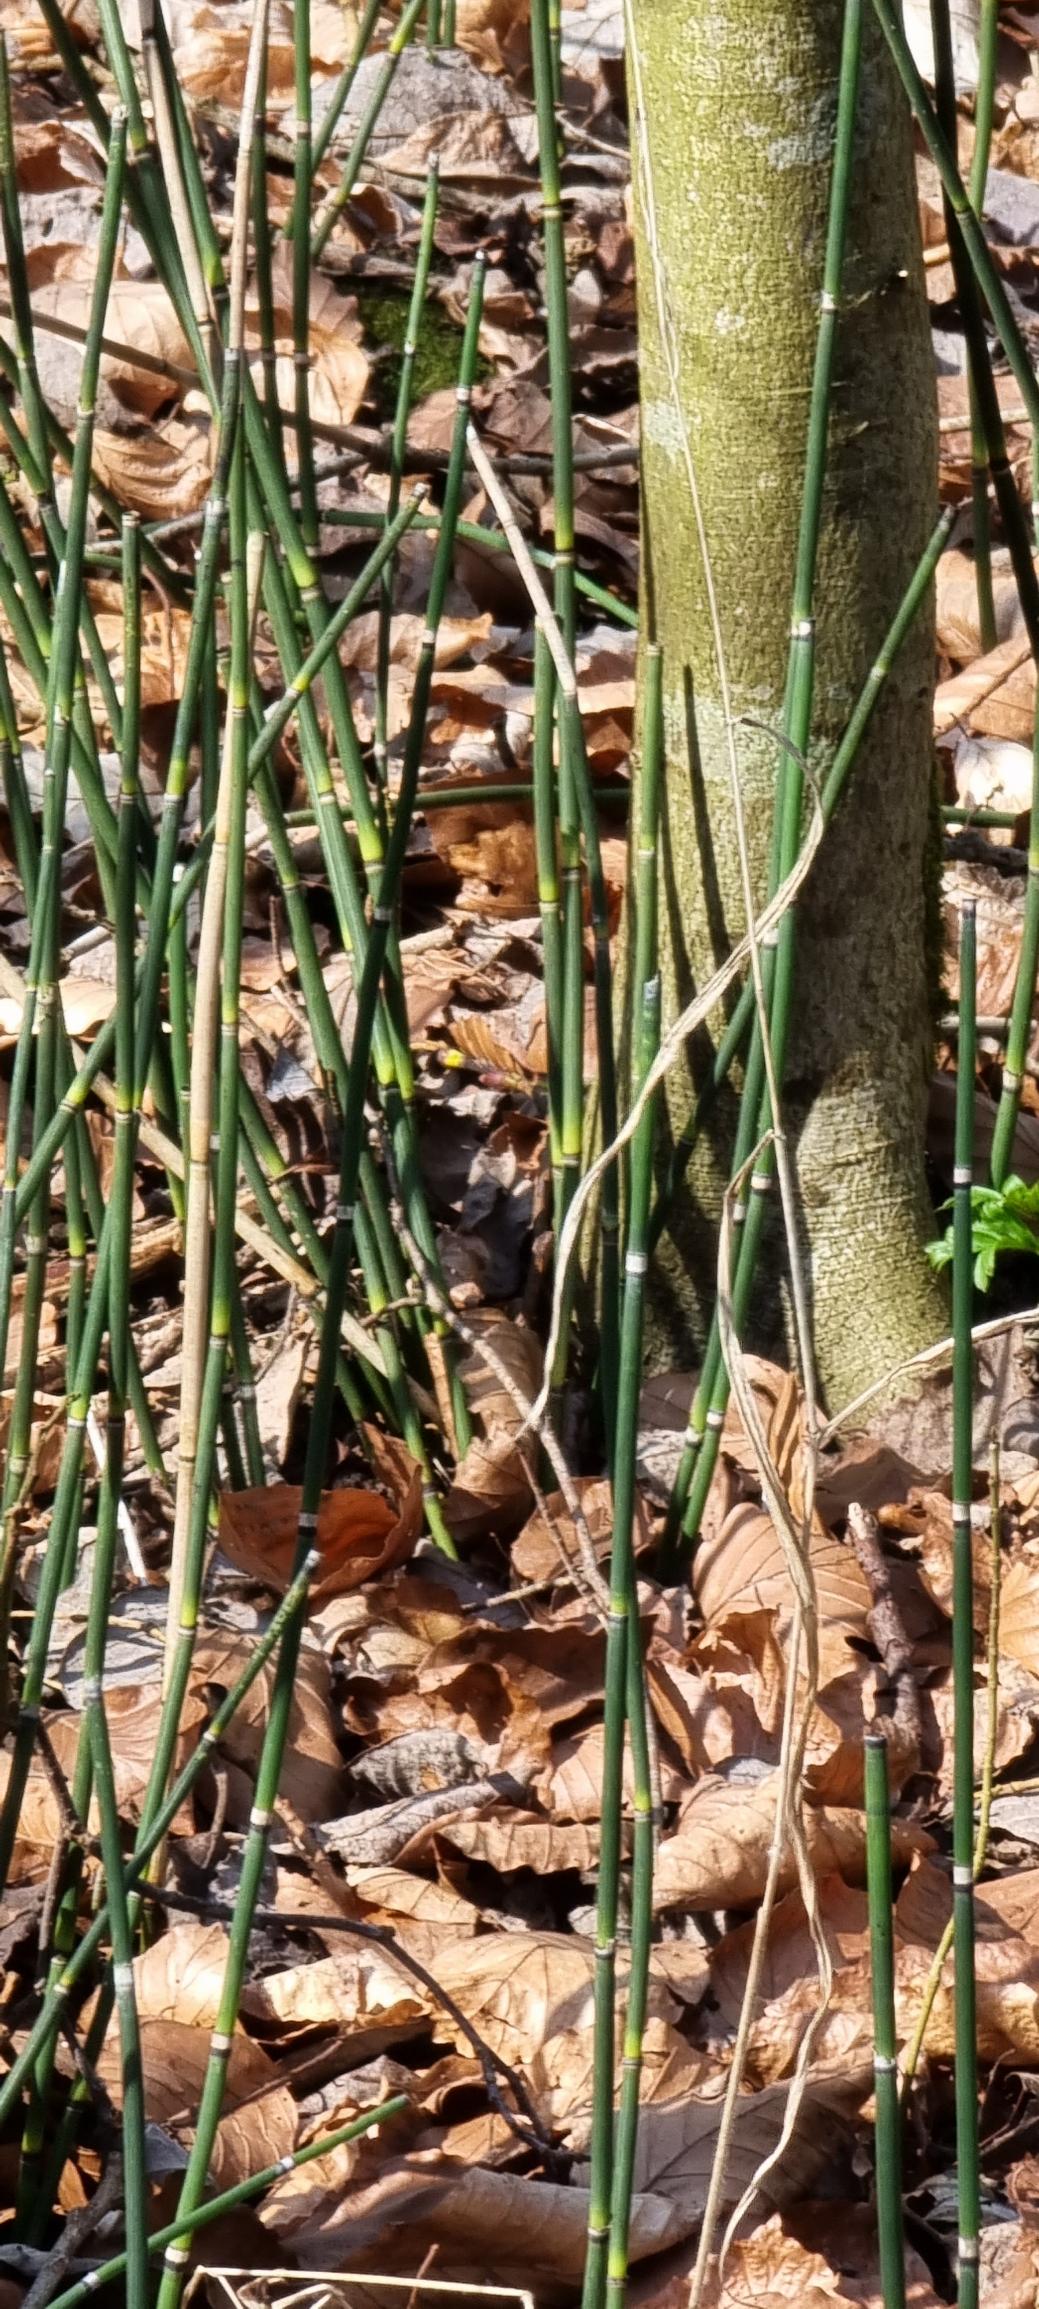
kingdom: Plantae
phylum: Tracheophyta
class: Polypodiopsida
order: Equisetales
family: Equisetaceae
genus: Equisetum
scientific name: Equisetum hyemale
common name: Skavgræs
